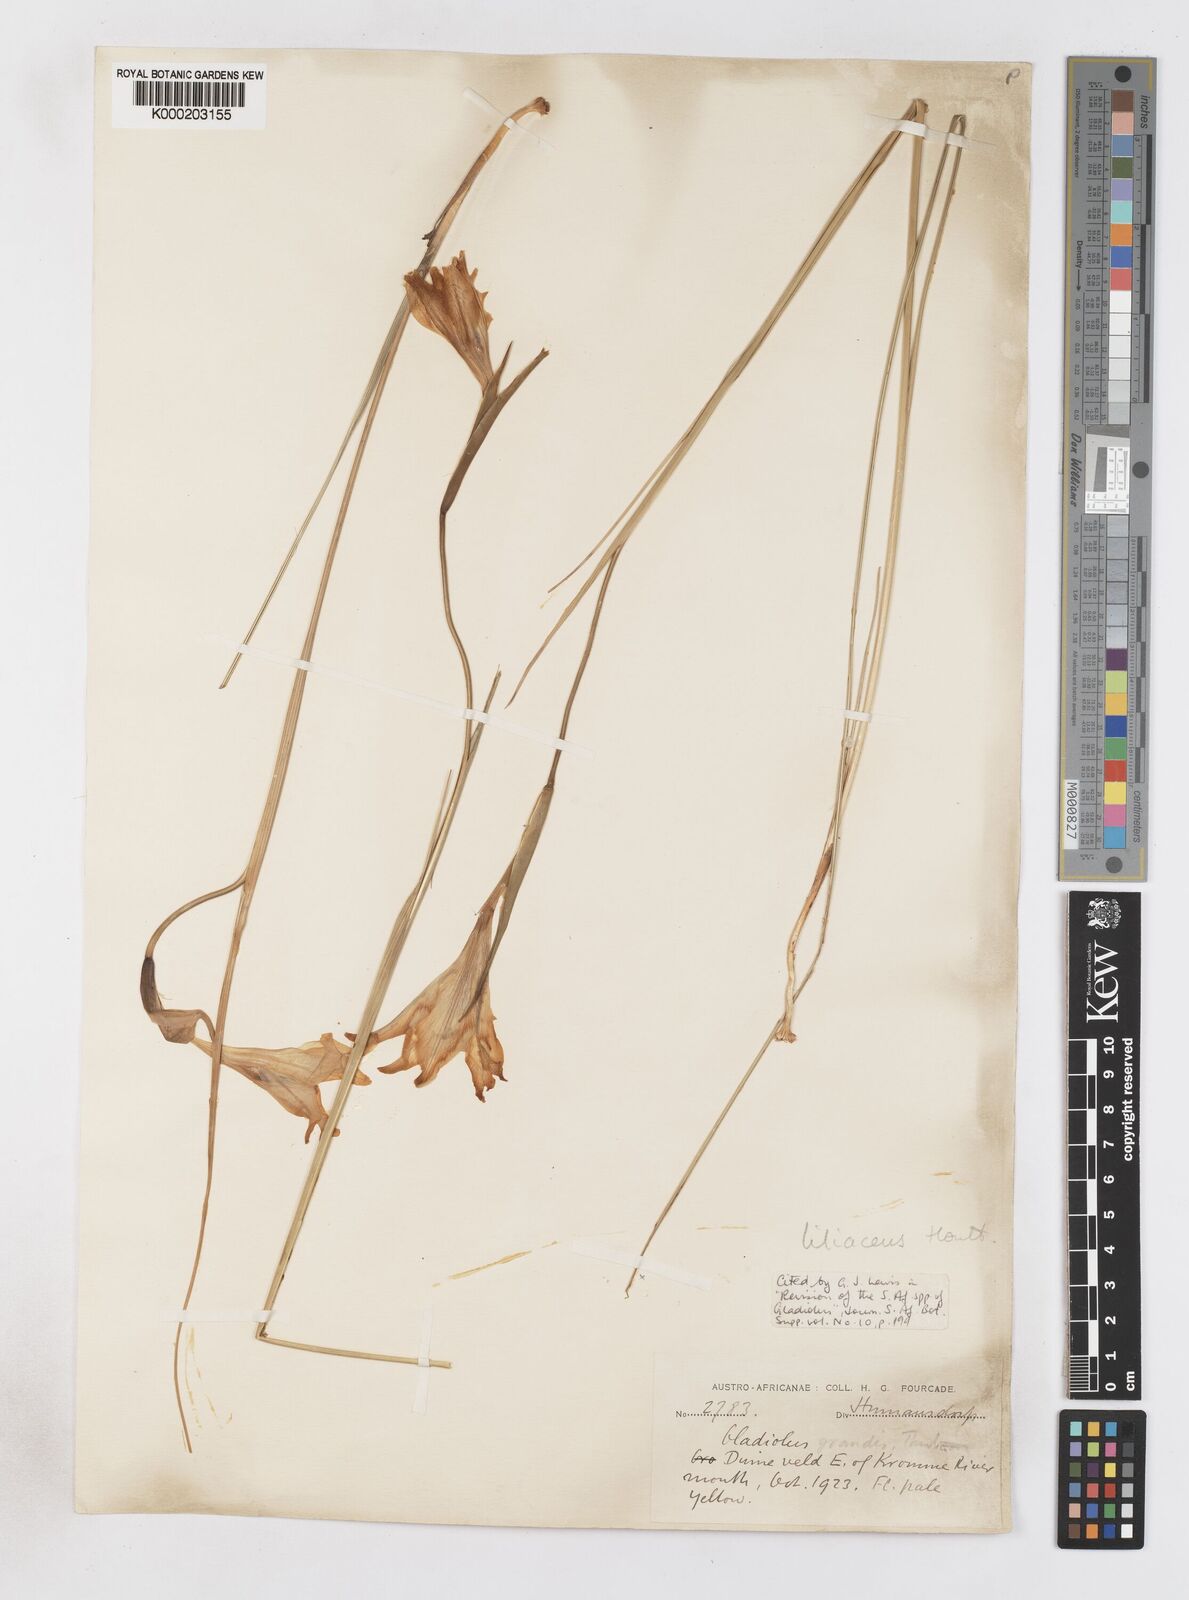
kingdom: Plantae
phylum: Tracheophyta
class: Liliopsida
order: Asparagales
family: Iridaceae
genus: Gladiolus
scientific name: Gladiolus liliaceus
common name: Large brown afrikaner
